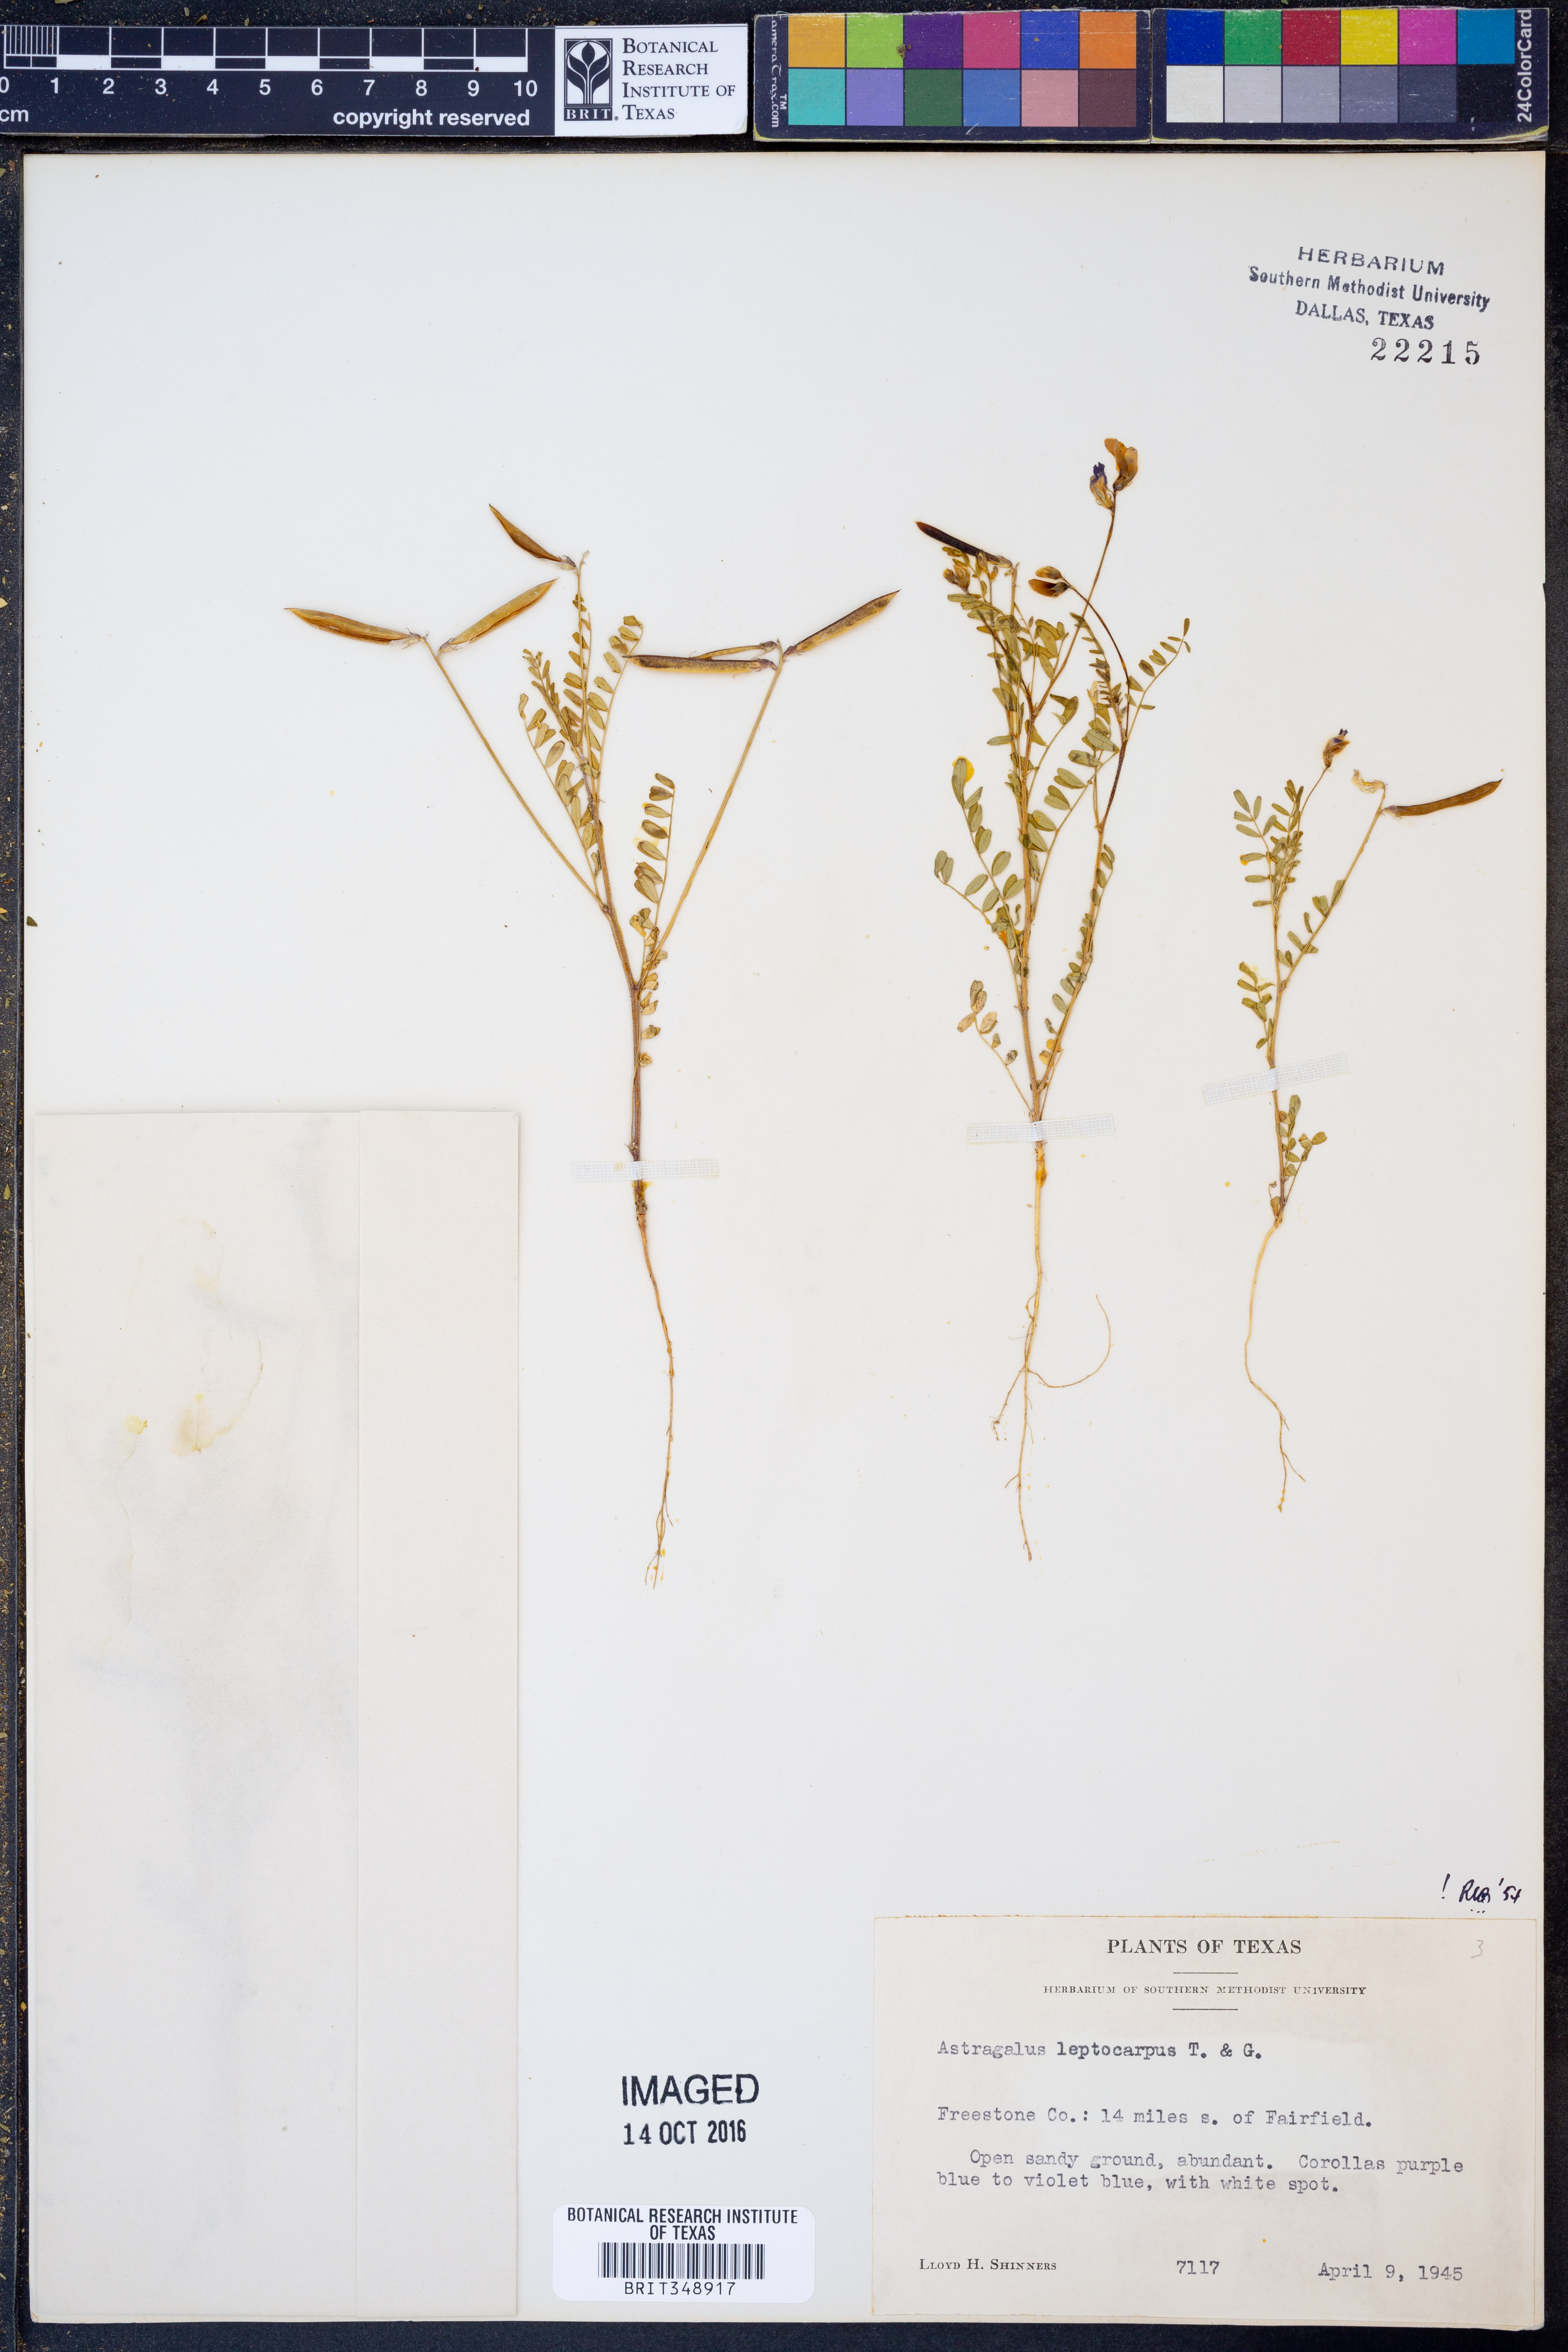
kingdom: Plantae
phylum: Tracheophyta
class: Magnoliopsida
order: Fabales
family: Fabaceae
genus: Astragalus
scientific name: Astragalus leptocarpus
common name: Bodkin milk-vetch
